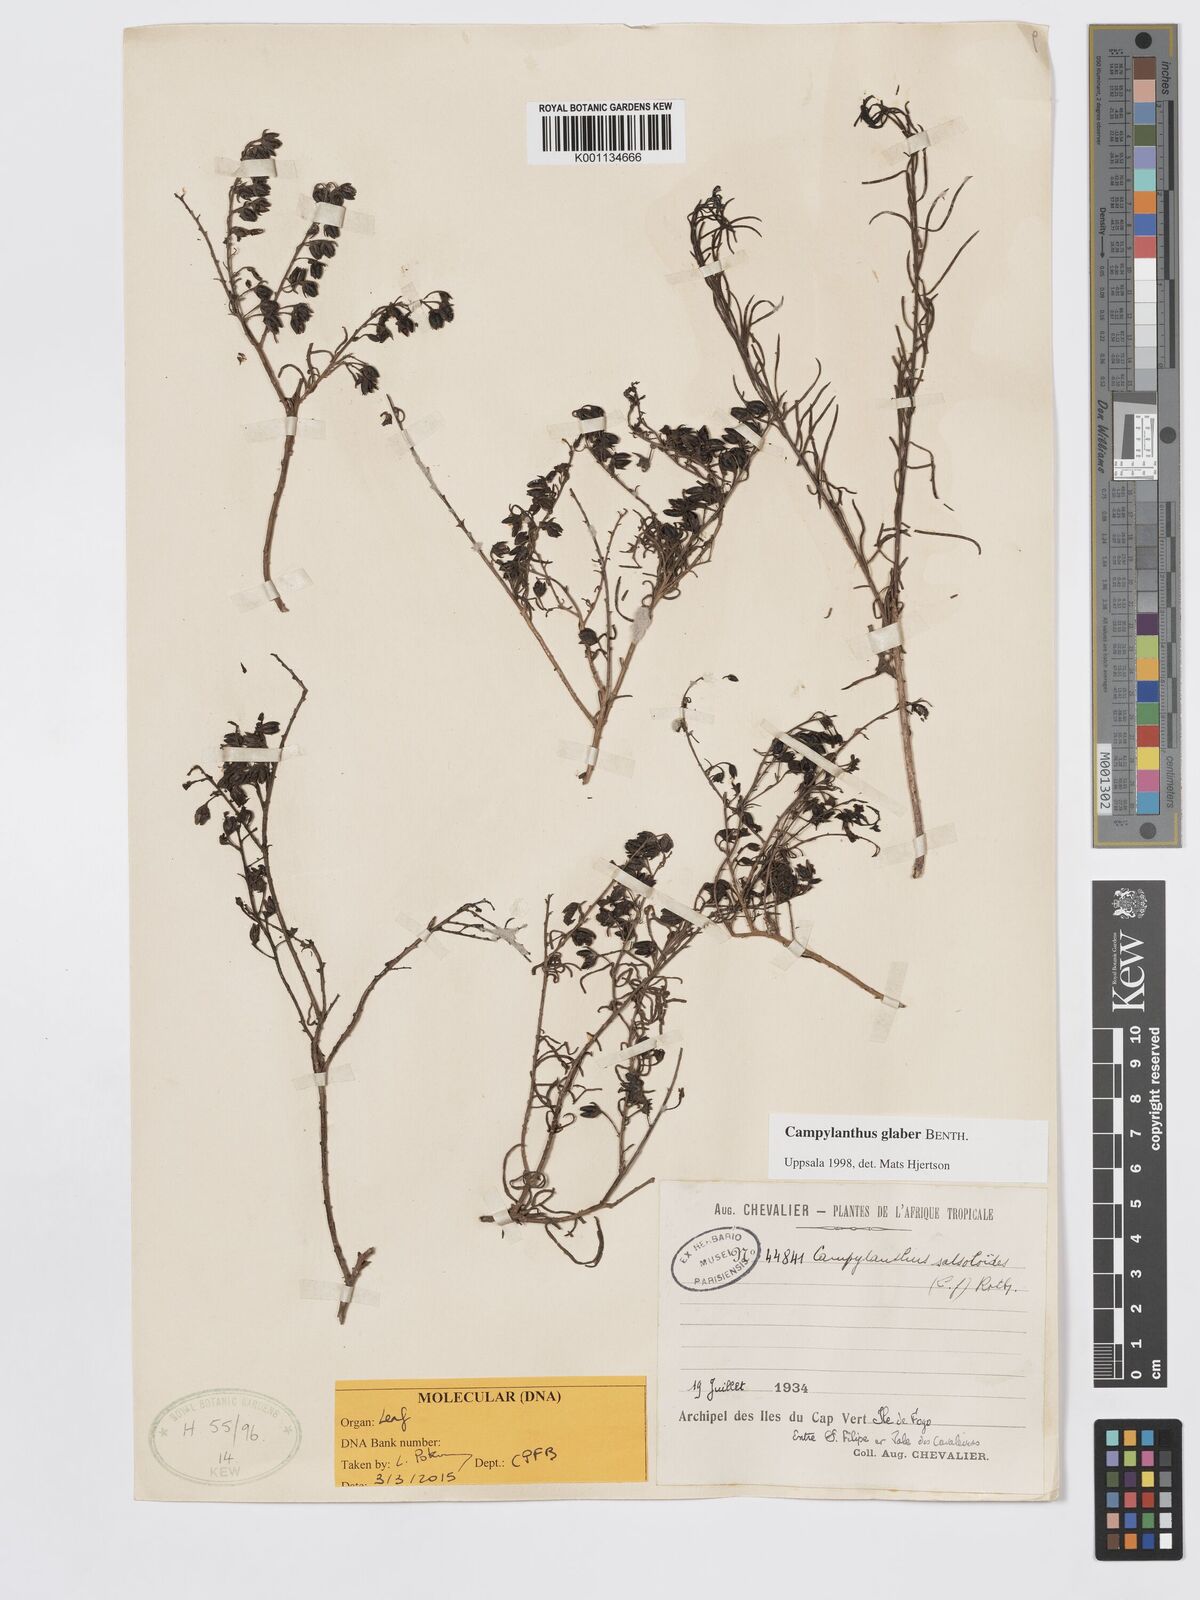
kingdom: Plantae
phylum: Tracheophyta
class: Magnoliopsida
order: Lamiales
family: Plantaginaceae
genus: Campylanthus
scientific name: Campylanthus glaber
